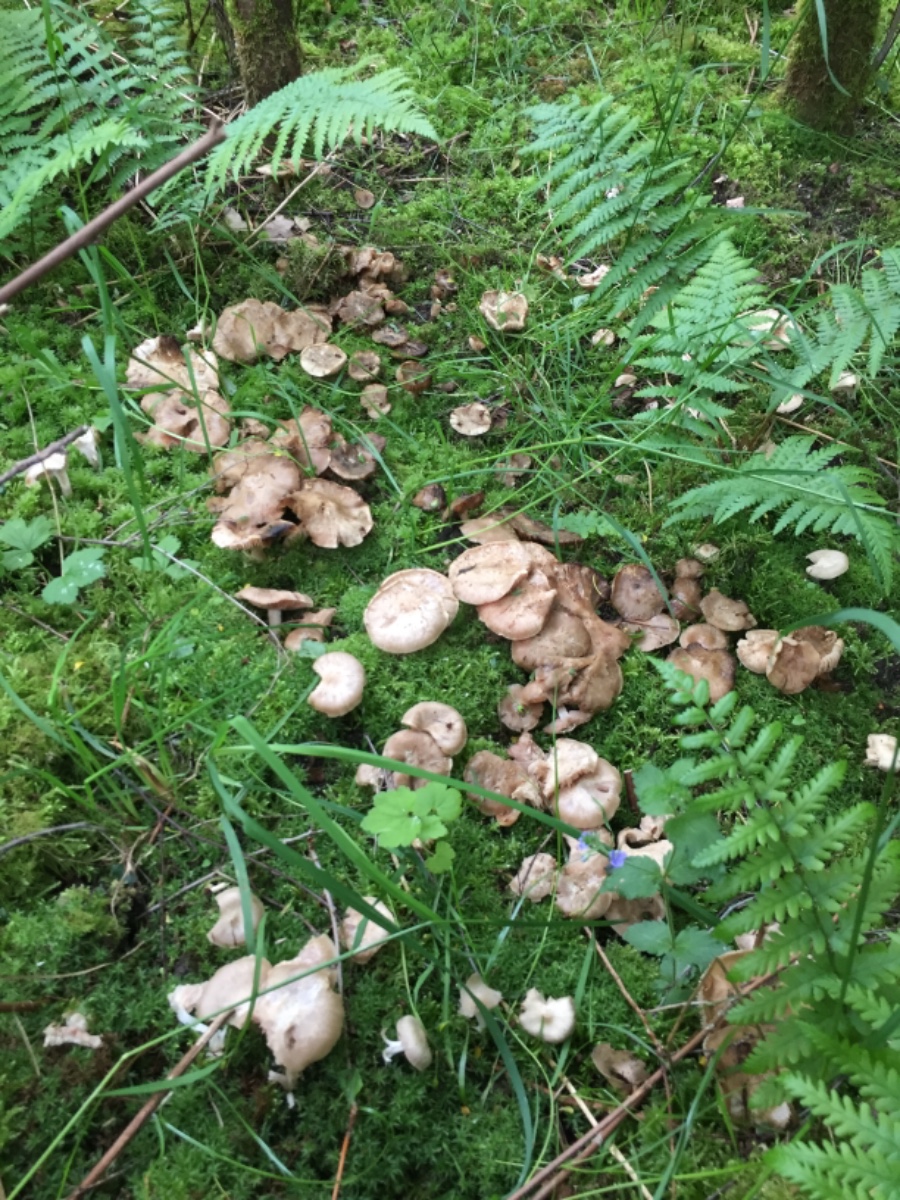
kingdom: Fungi
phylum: Basidiomycota
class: Agaricomycetes
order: Agaricales
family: Entolomataceae
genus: Entoloma
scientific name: Entoloma
